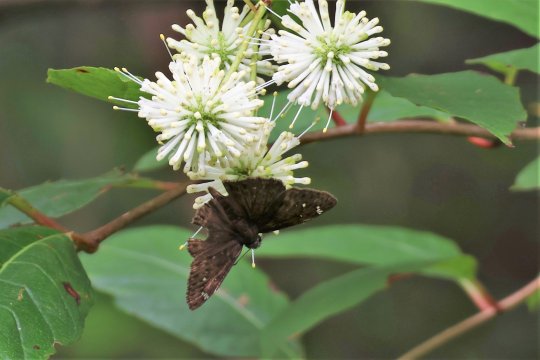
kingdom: Animalia
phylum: Arthropoda
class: Insecta
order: Lepidoptera
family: Hesperiidae
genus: Gesta
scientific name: Gesta
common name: Horace's Duskywing
